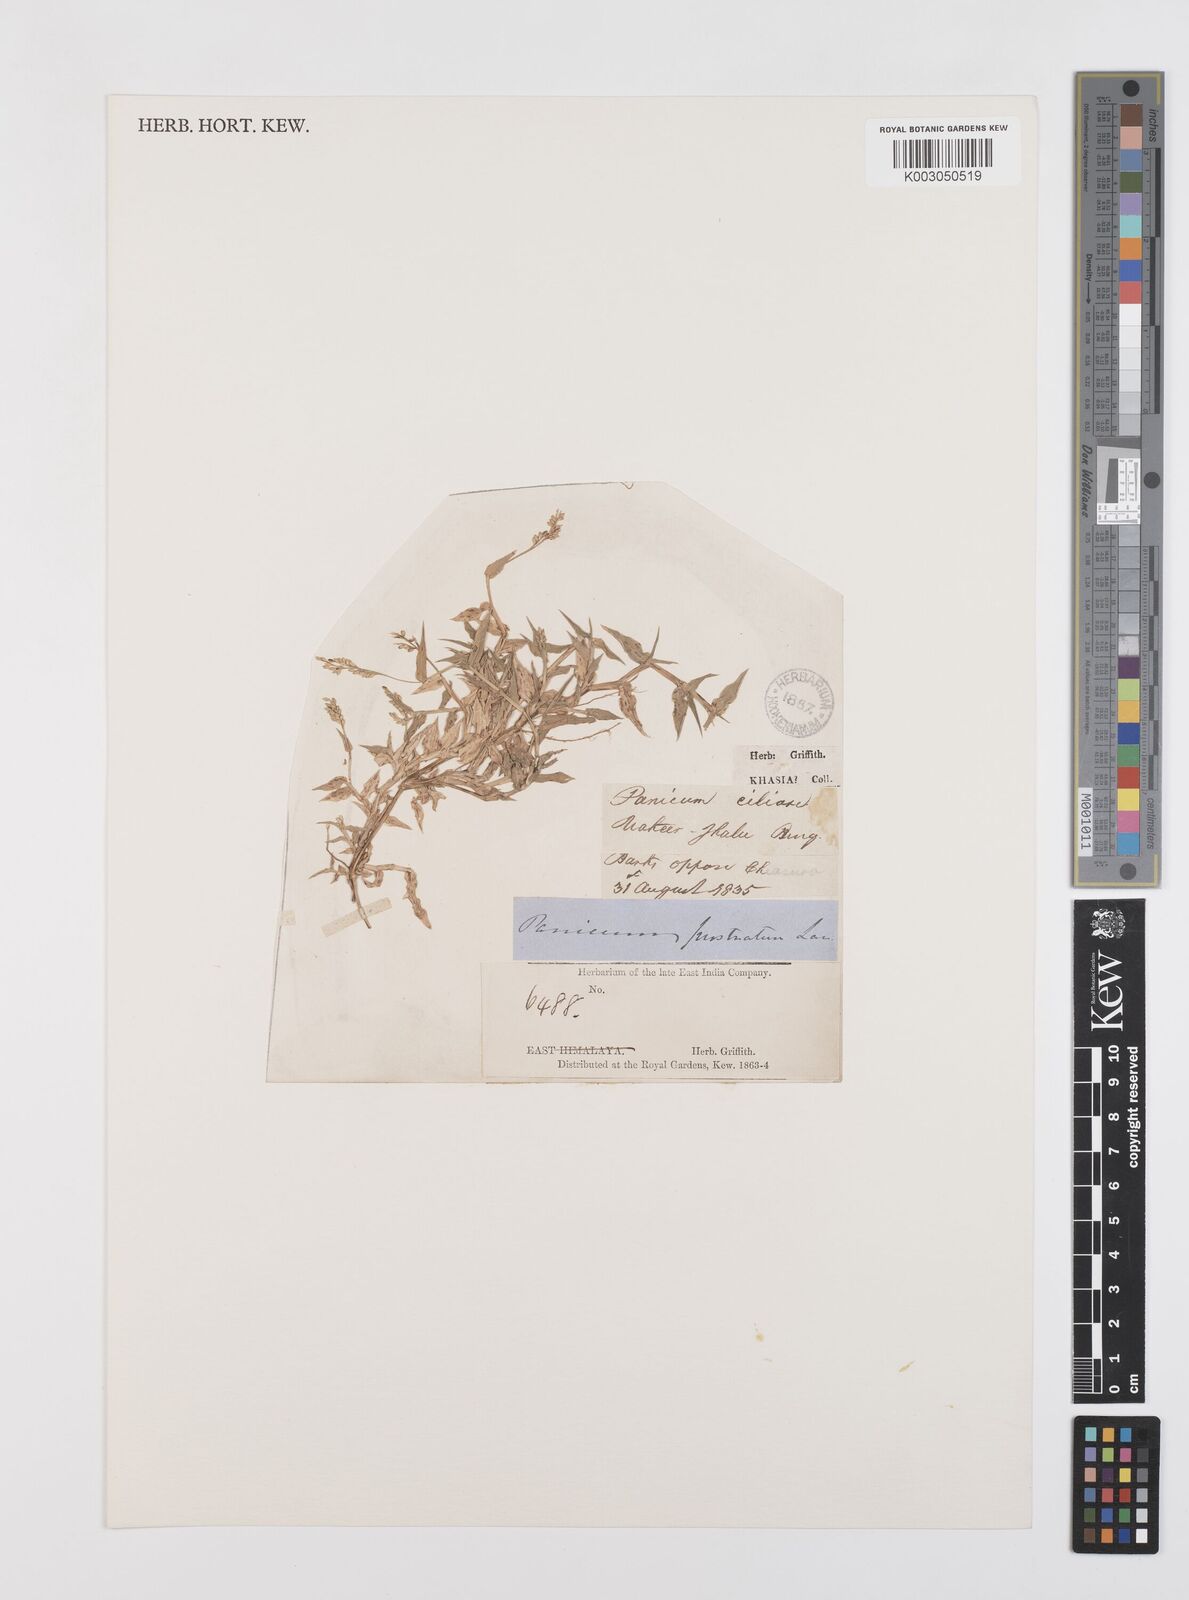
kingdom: Plantae
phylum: Tracheophyta
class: Liliopsida
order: Poales
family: Poaceae
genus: Urochloa
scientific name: Urochloa reptans
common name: Sprawling signalgrass
